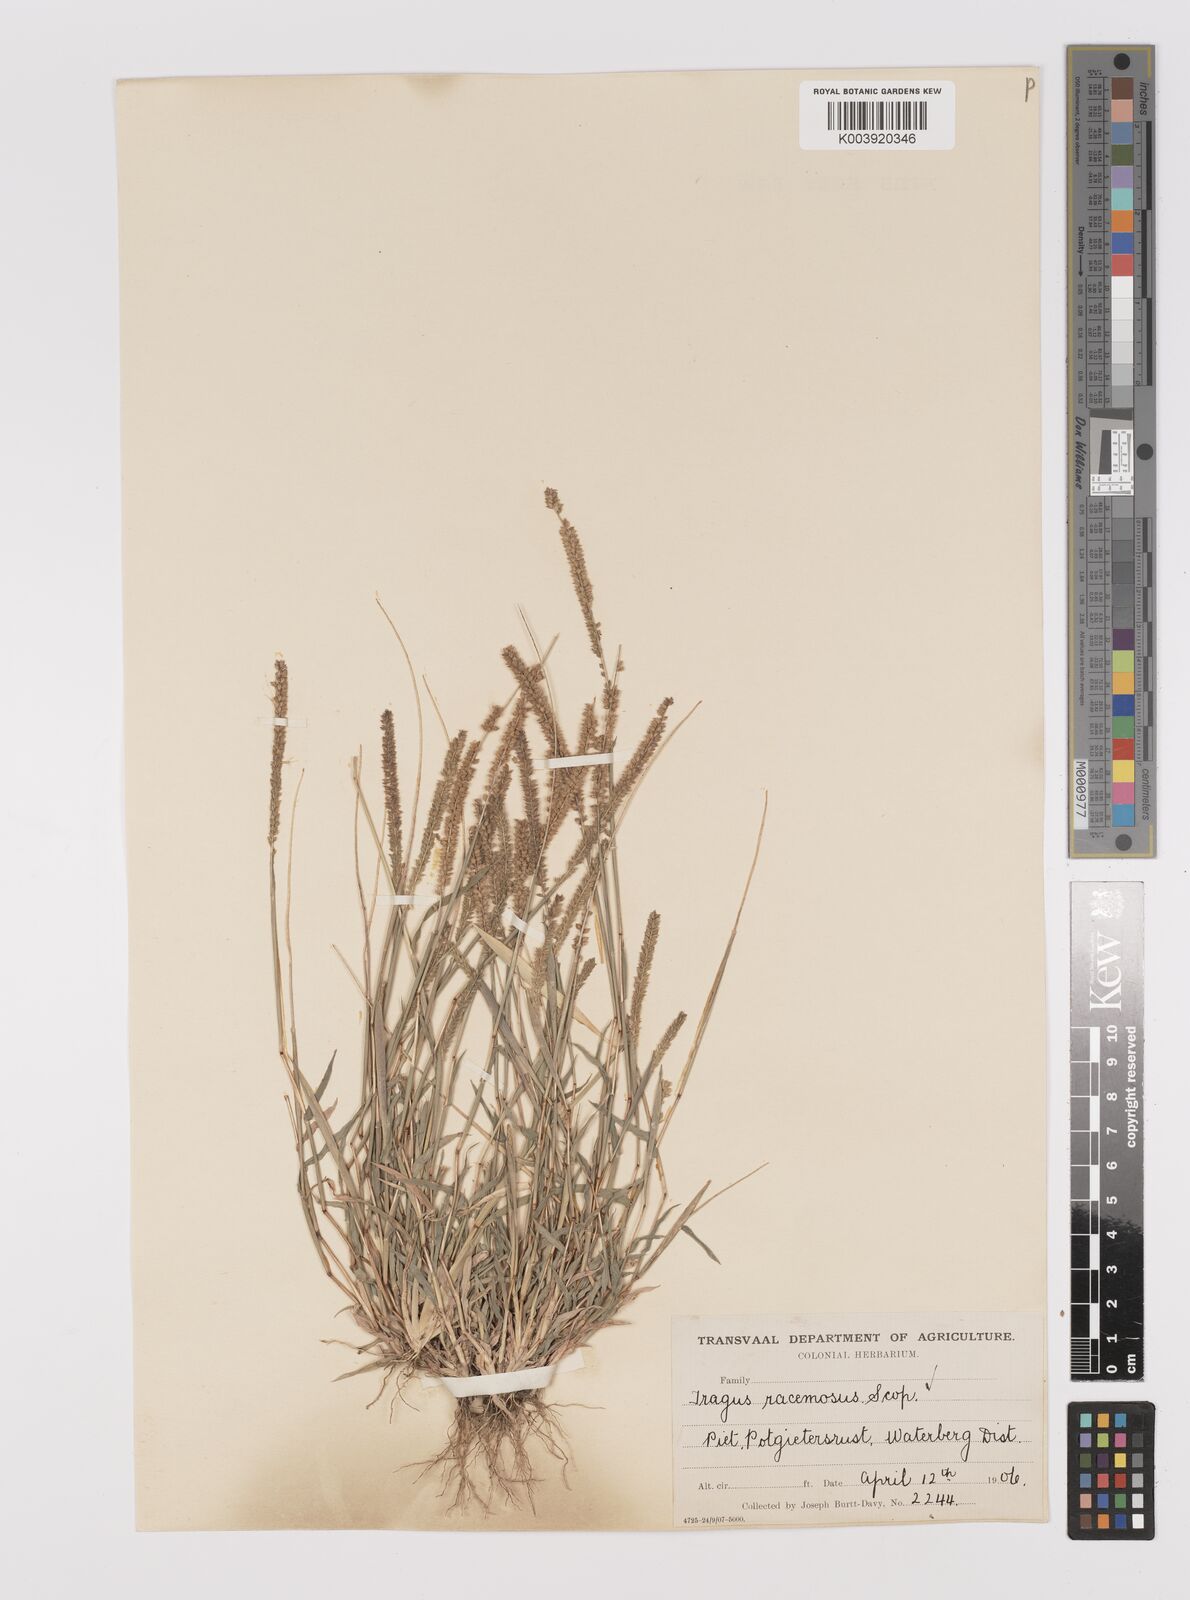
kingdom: Plantae
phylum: Tracheophyta
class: Liliopsida
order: Poales
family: Poaceae
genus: Tragus
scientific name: Tragus berteronianus
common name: African bur-grass
